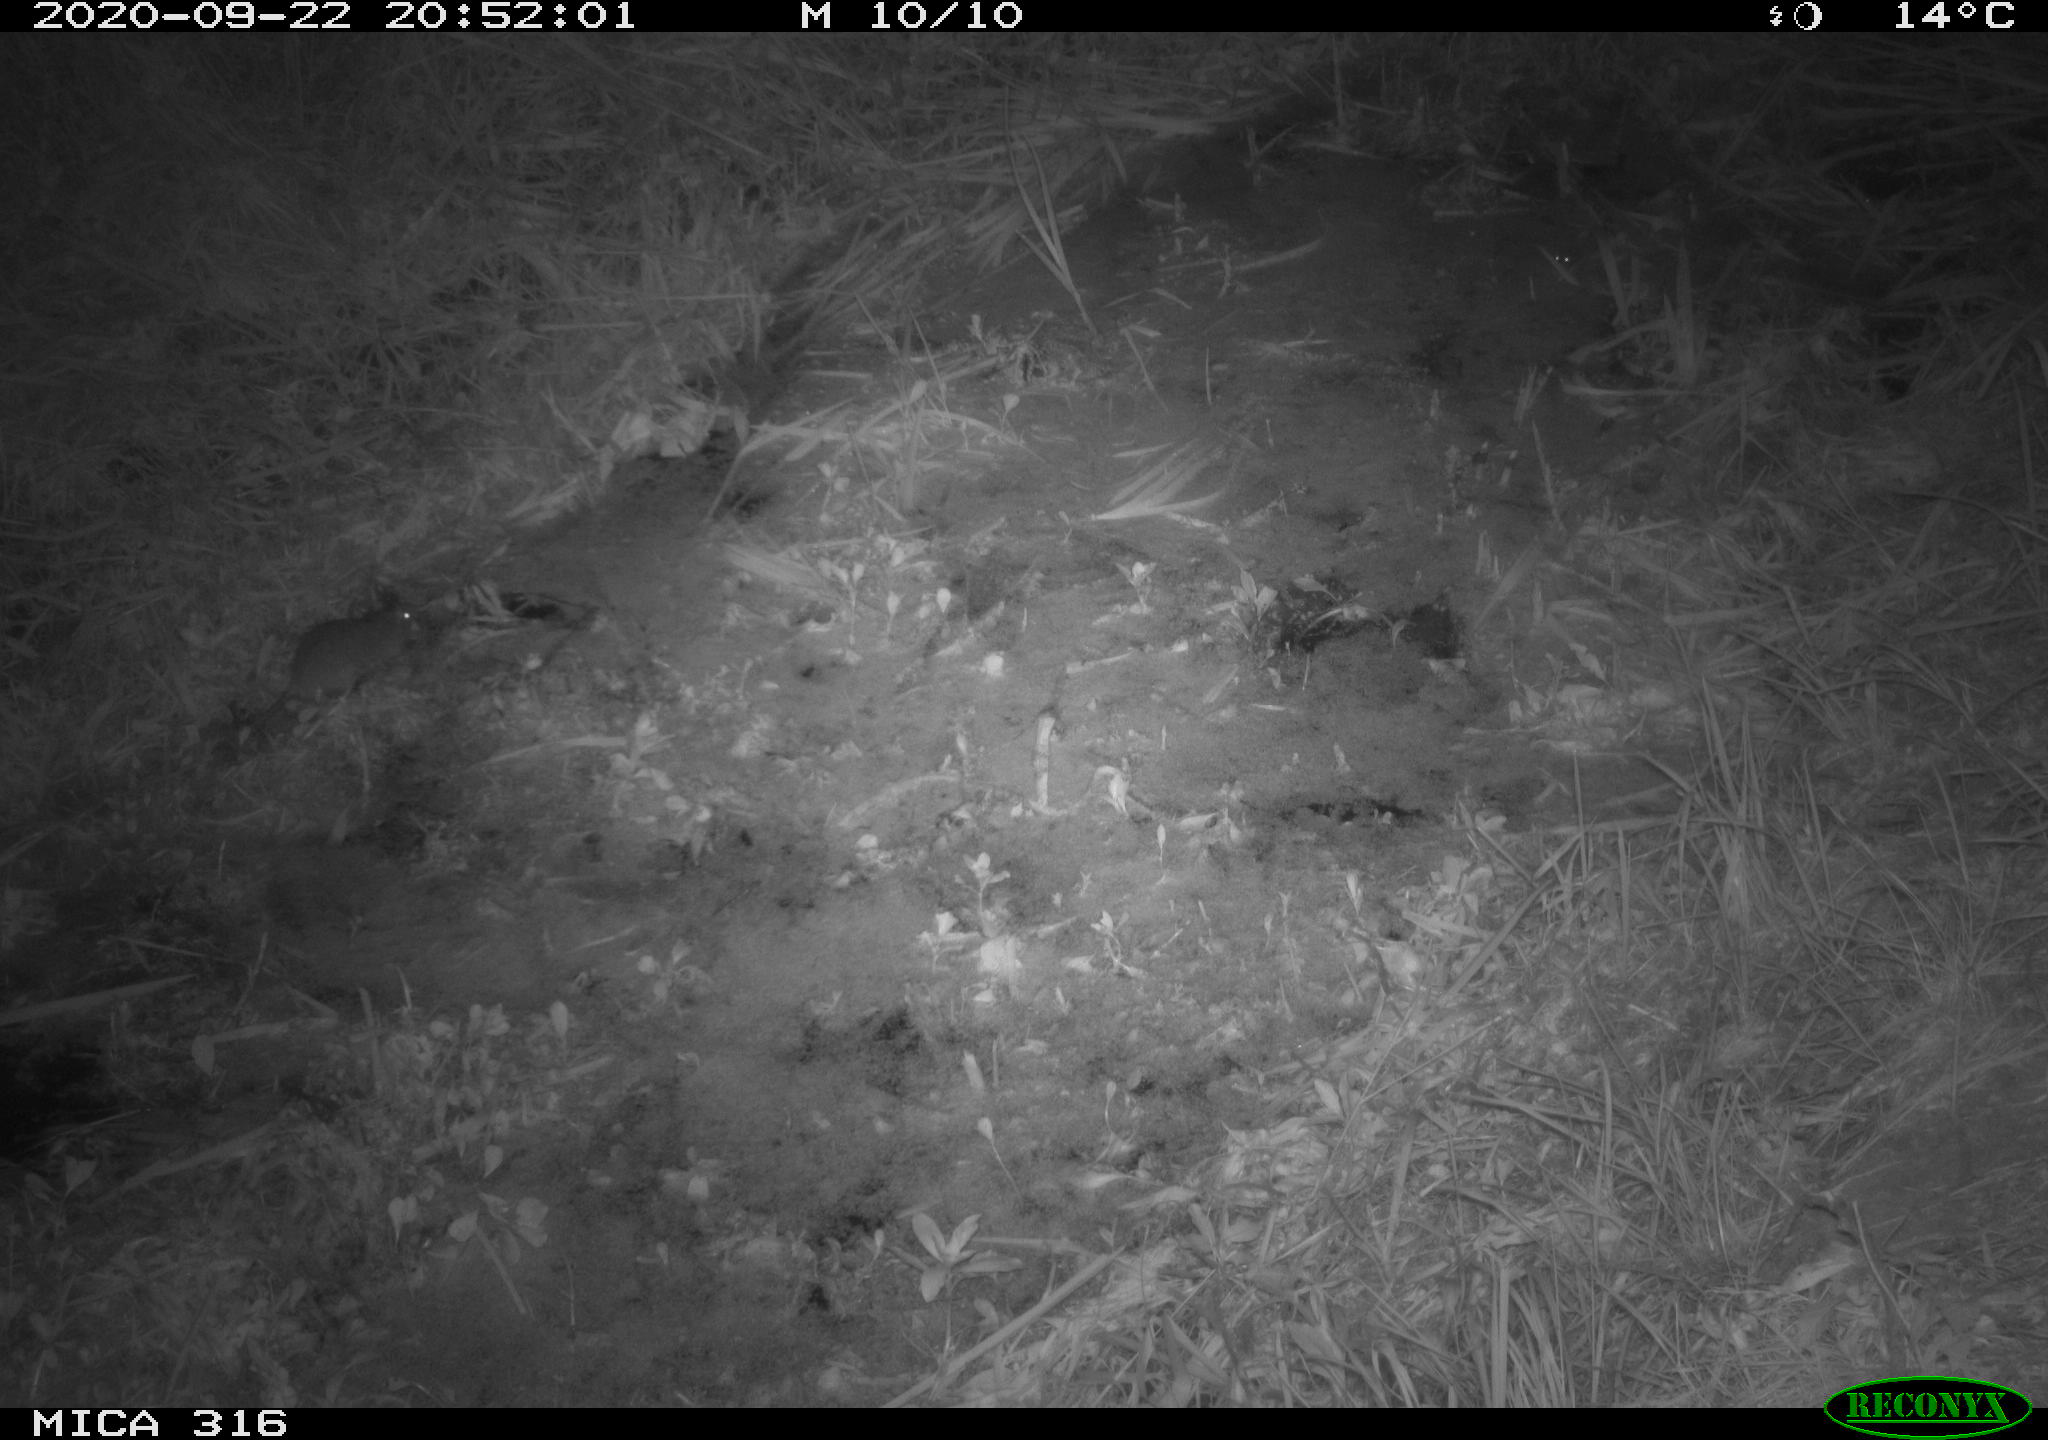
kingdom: Animalia
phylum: Chordata
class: Mammalia
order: Rodentia
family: Muridae
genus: Rattus
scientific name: Rattus norvegicus
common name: Brown rat
